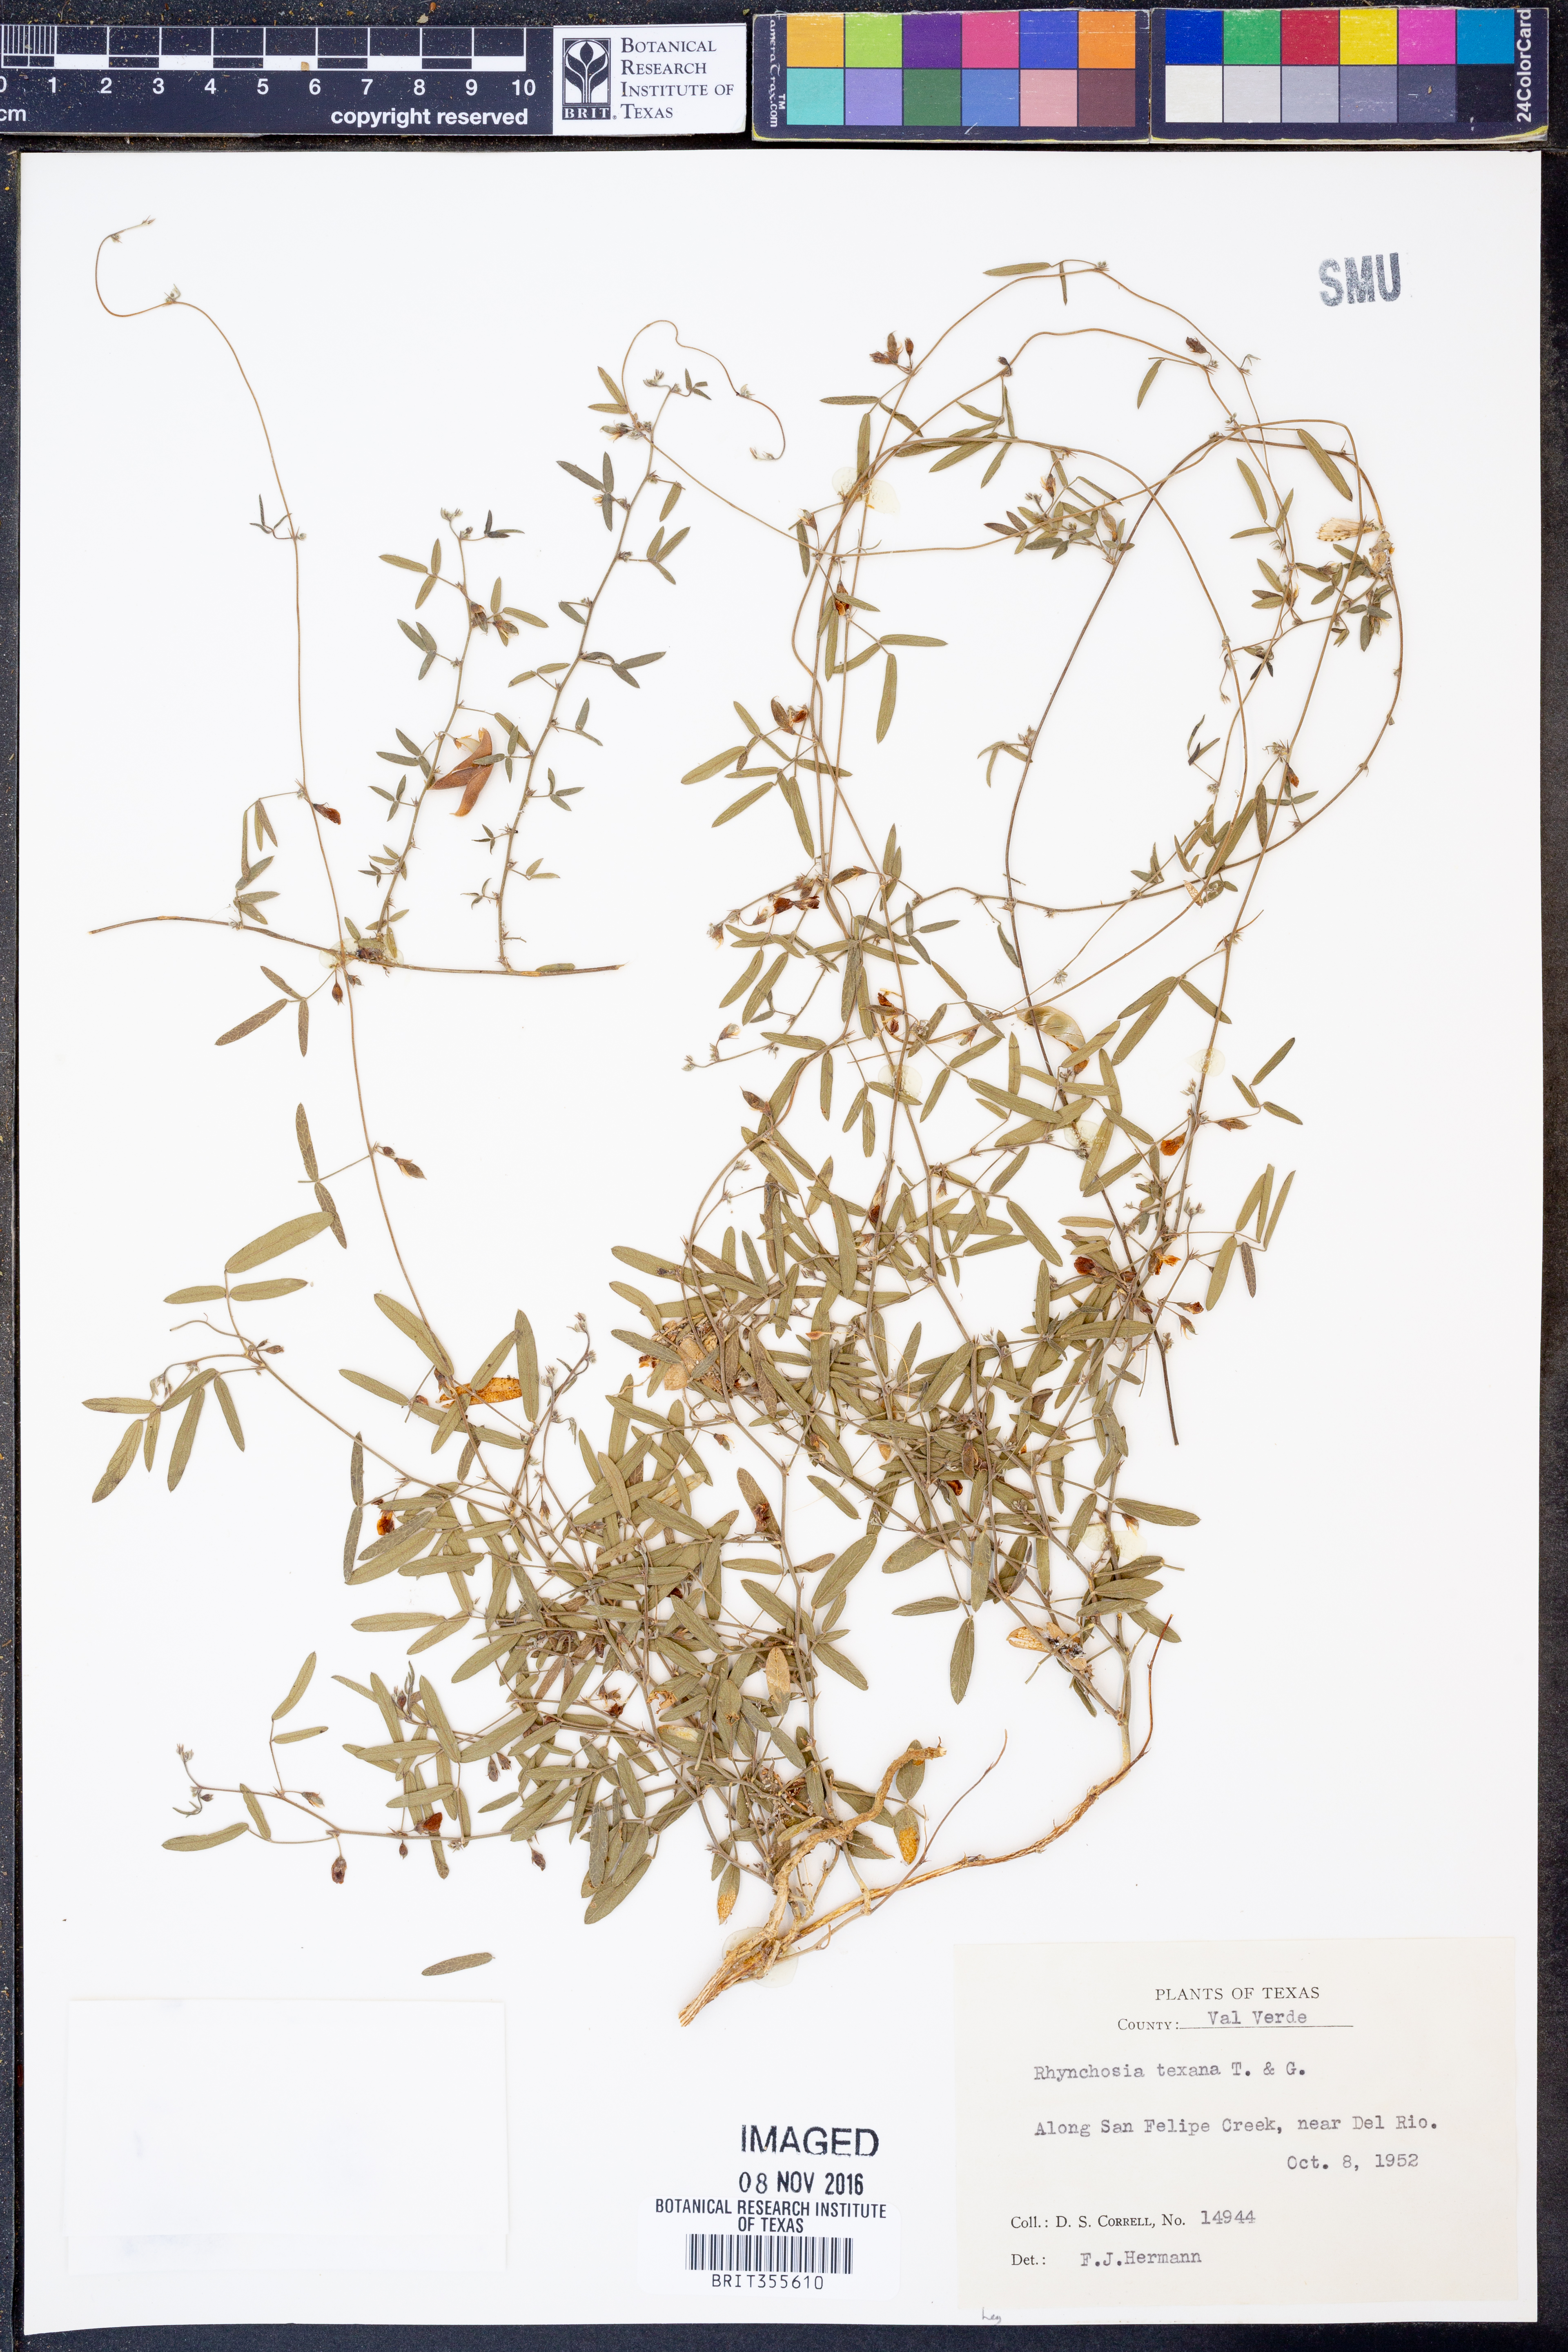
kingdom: Plantae
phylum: Tracheophyta
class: Magnoliopsida
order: Fabales
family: Fabaceae
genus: Rhynchosia
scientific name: Rhynchosia senna
